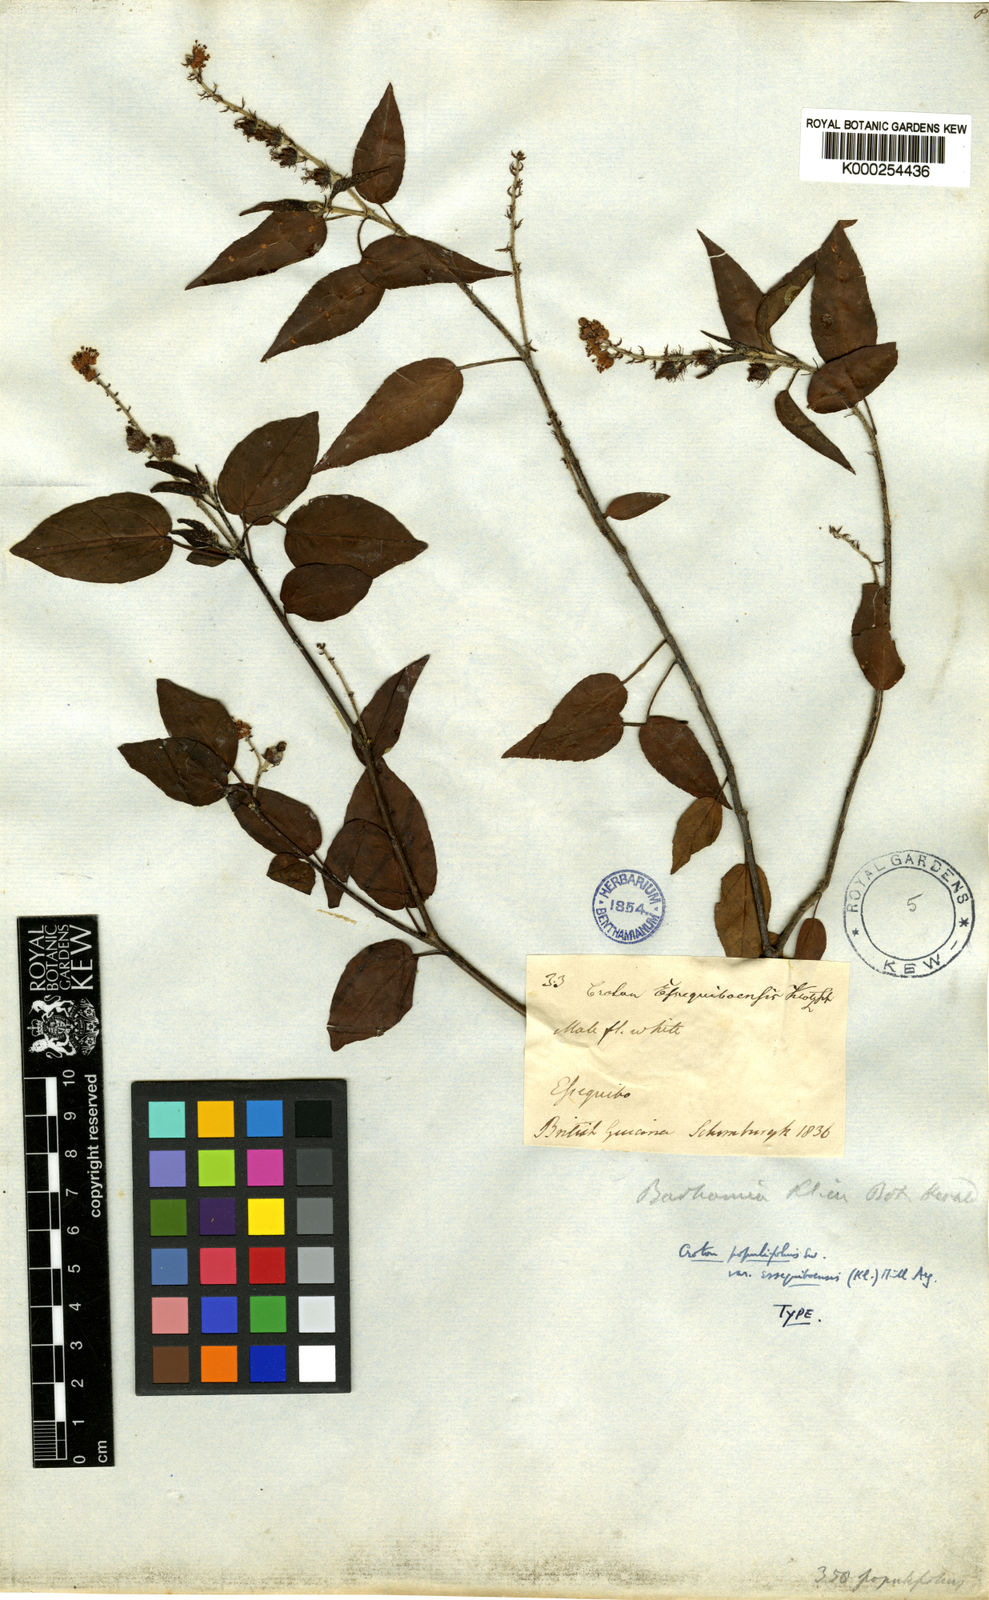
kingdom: Plantae
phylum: Tracheophyta
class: Magnoliopsida
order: Malpighiales
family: Euphorbiaceae
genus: Croton
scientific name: Croton essequiboensis
